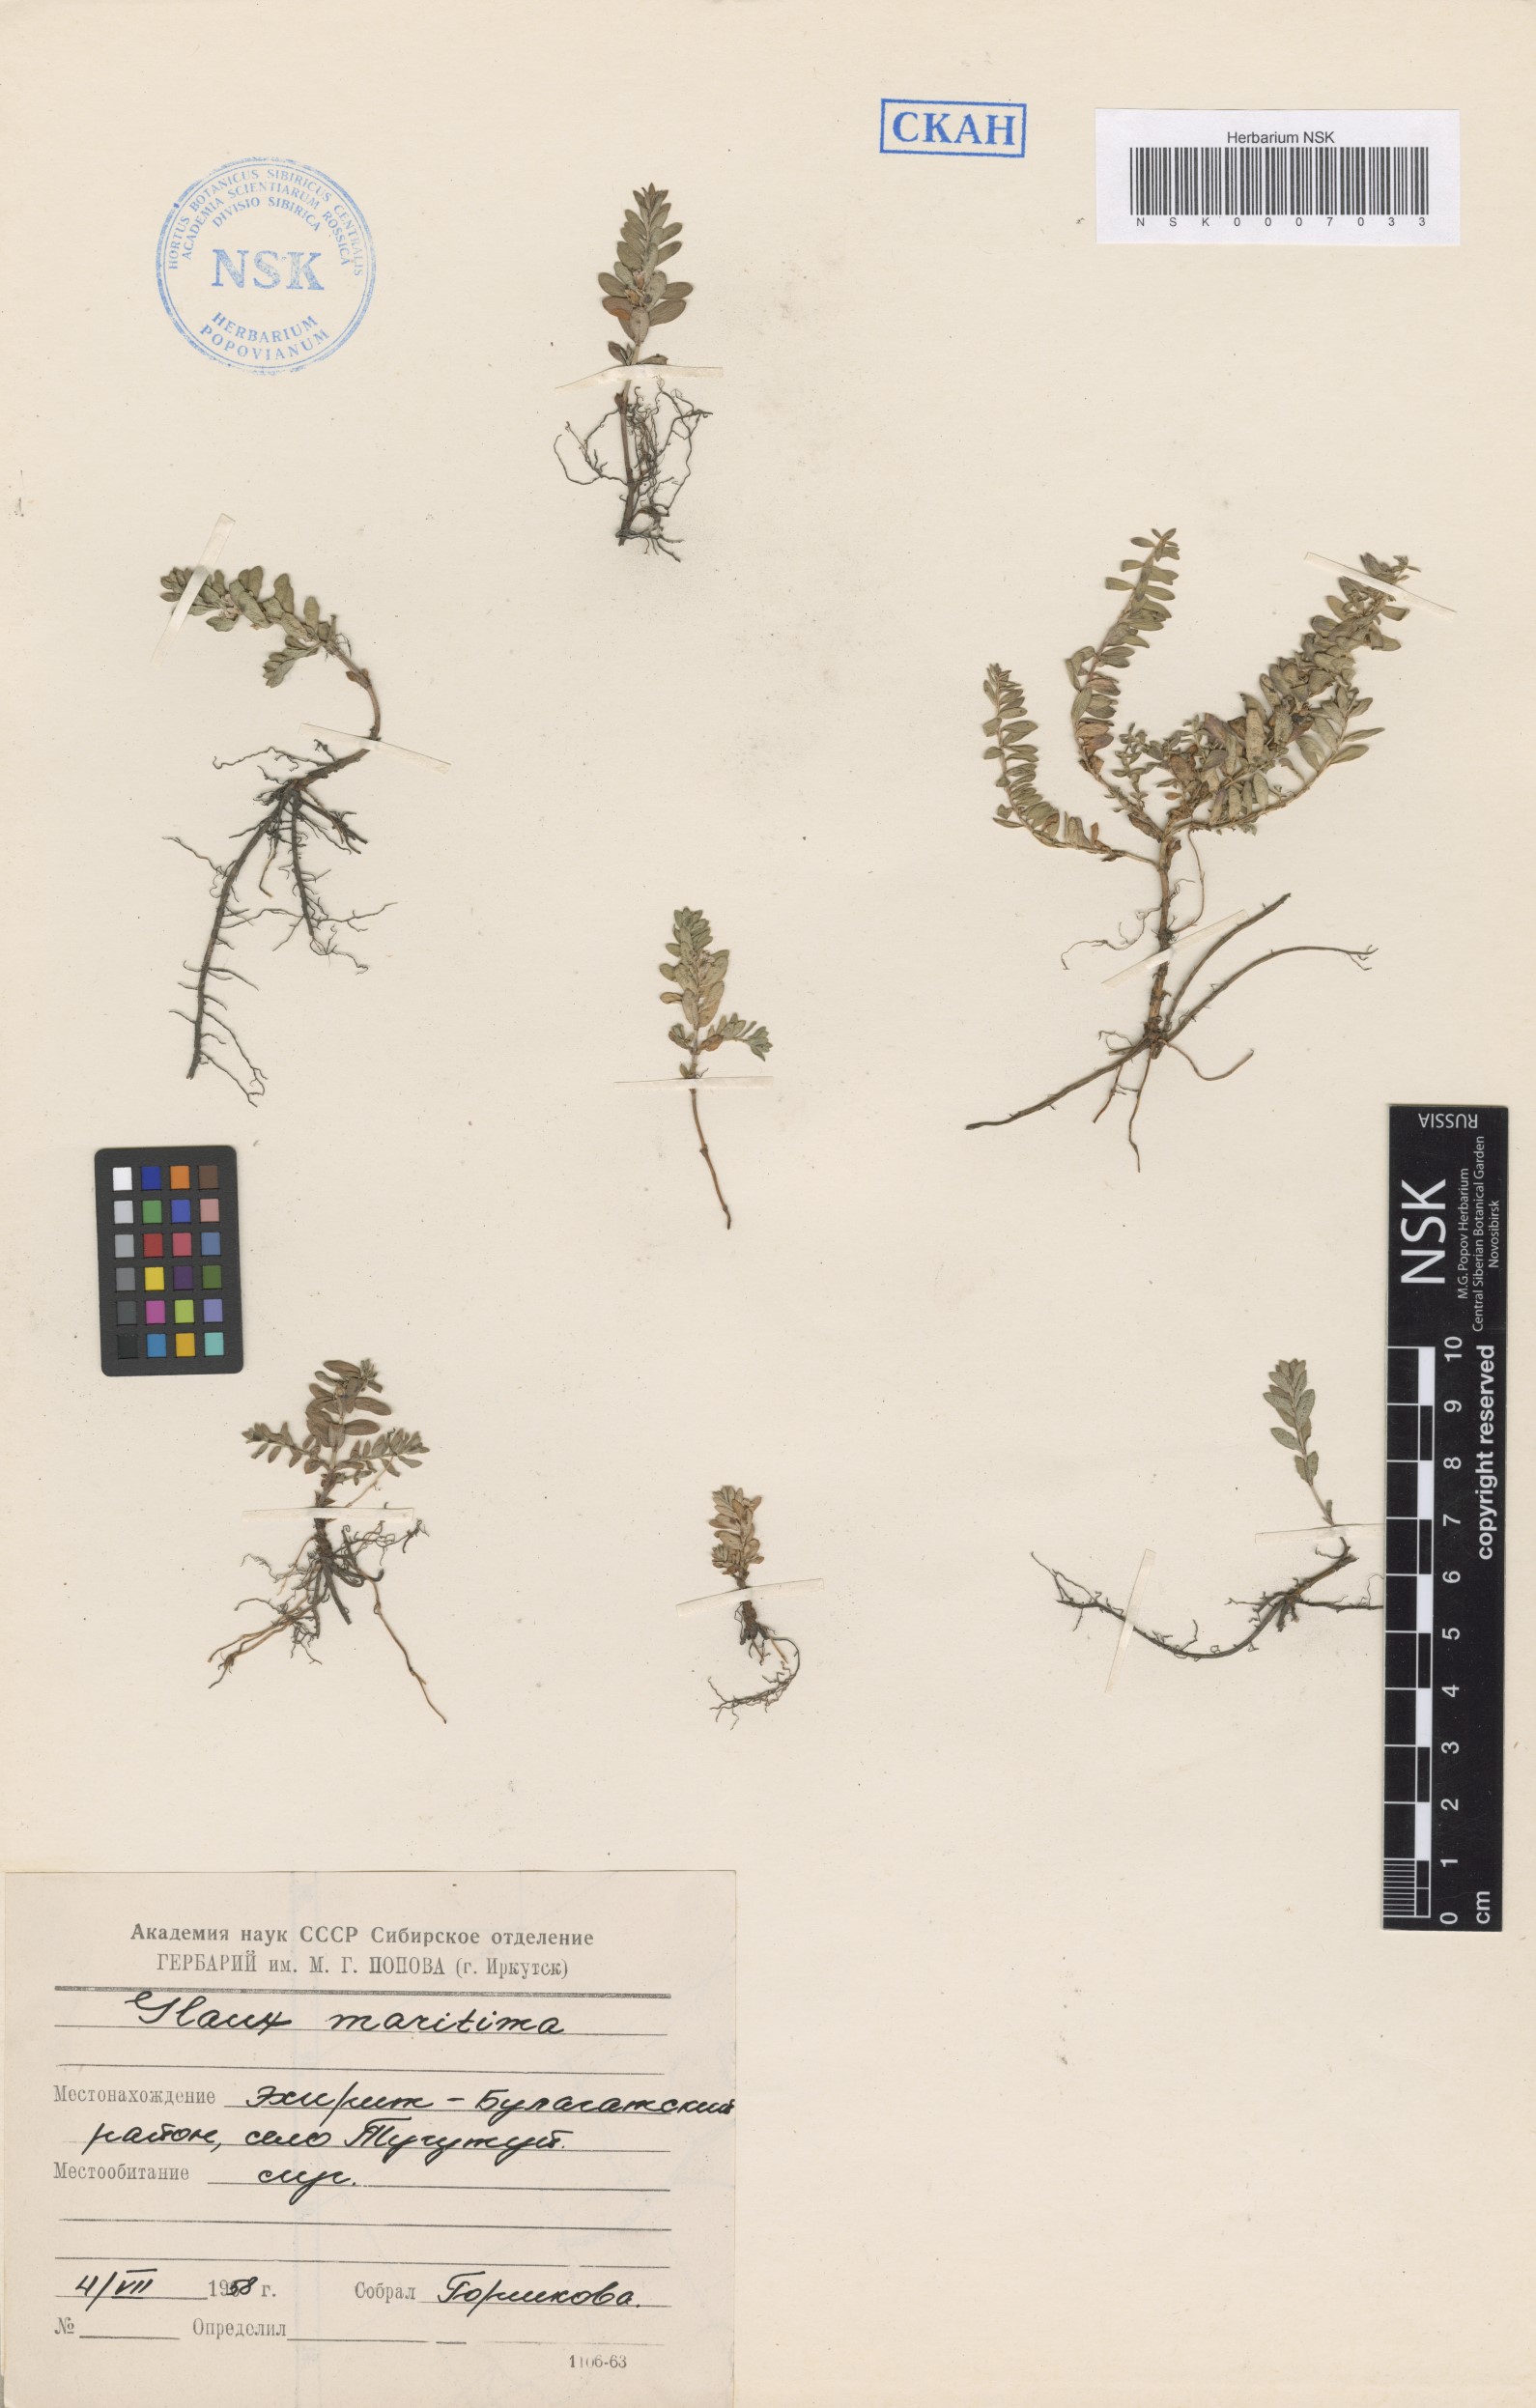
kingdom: Plantae
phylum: Tracheophyta
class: Magnoliopsida
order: Ericales
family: Primulaceae
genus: Lysimachia
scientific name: Lysimachia maritima
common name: Sea milkwort
